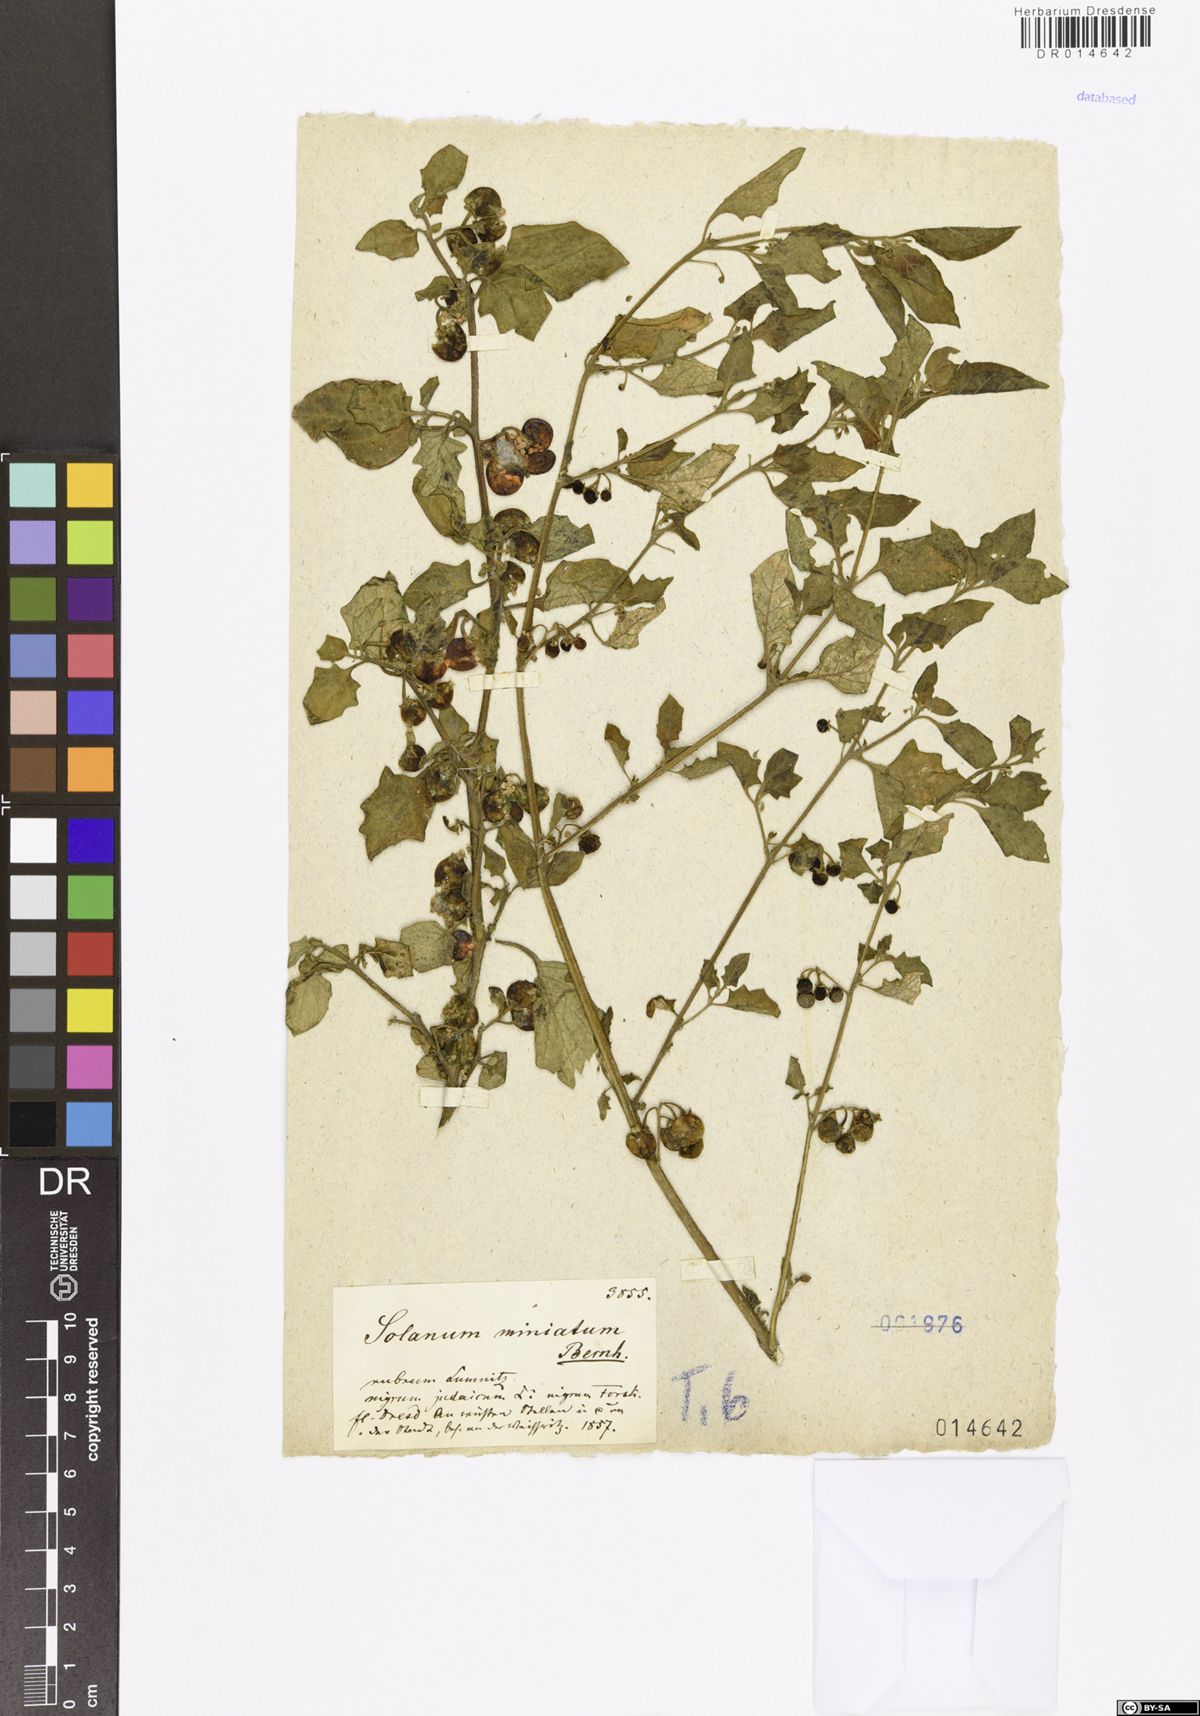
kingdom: Plantae
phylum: Tracheophyta
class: Magnoliopsida
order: Solanales
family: Solanaceae
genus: Solanum
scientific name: Solanum alatum
